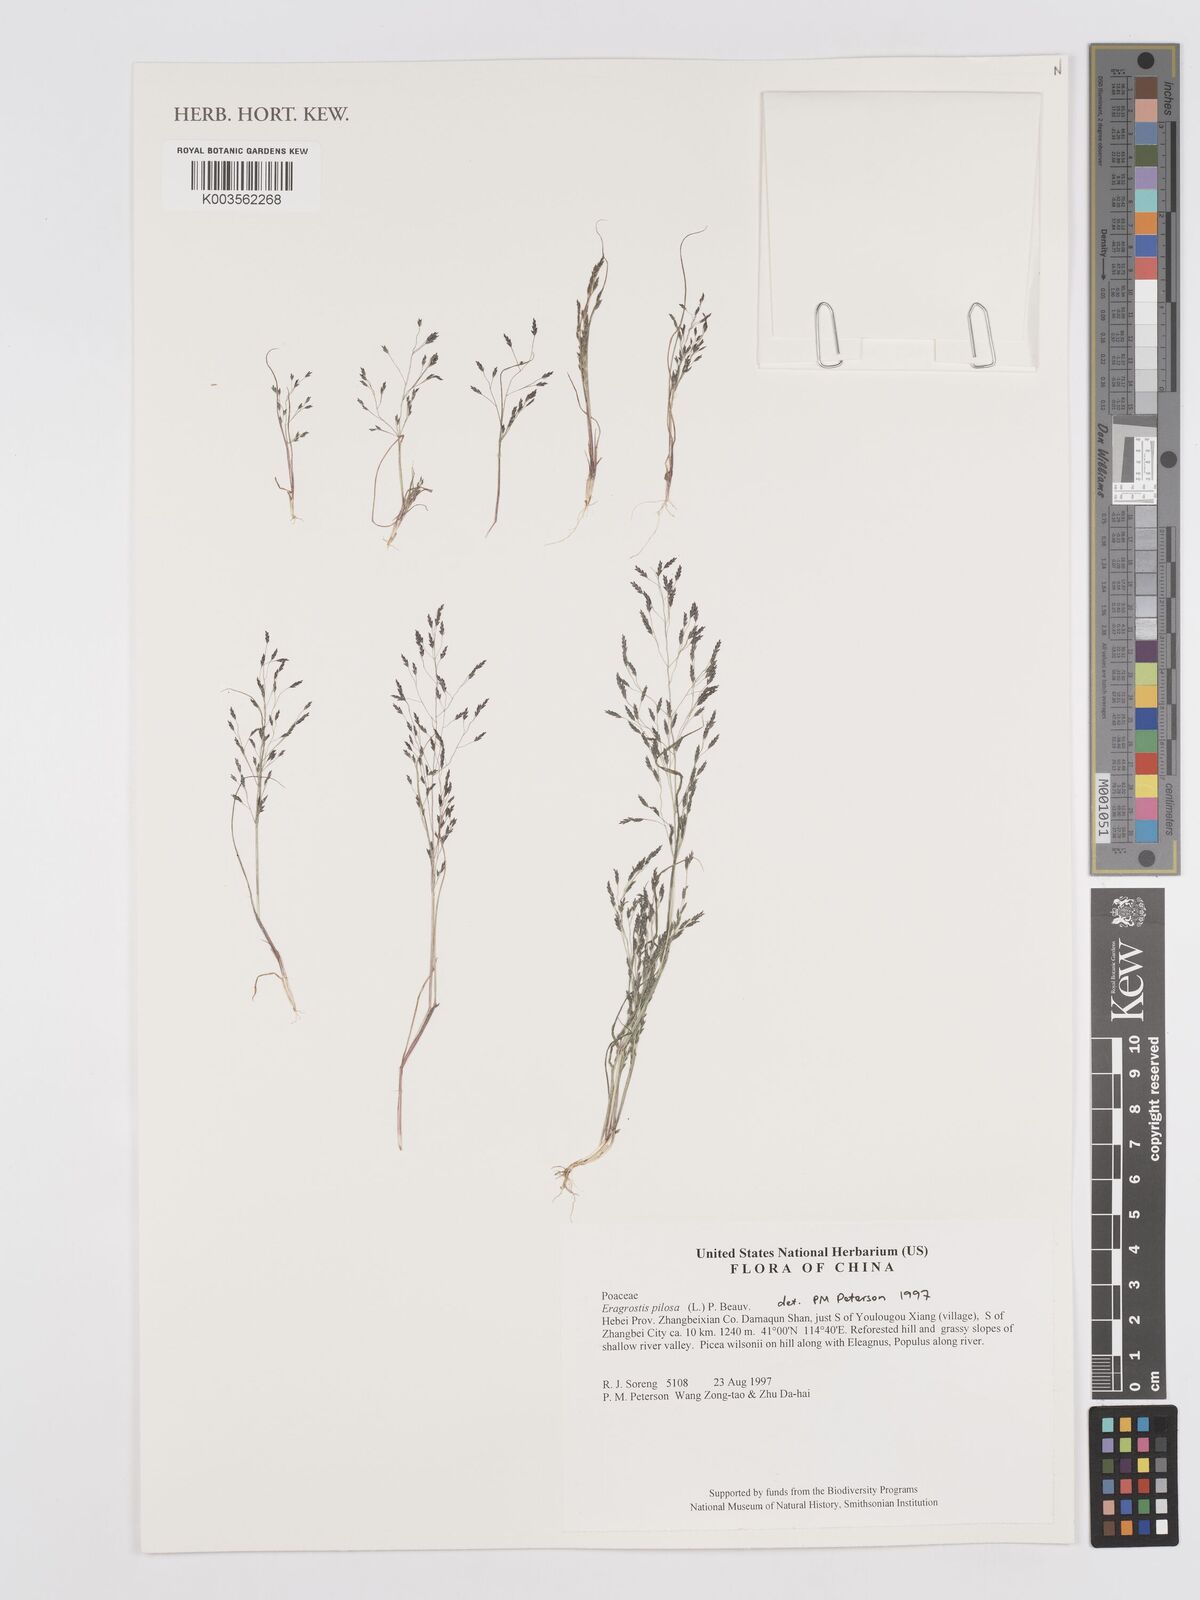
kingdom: Plantae
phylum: Tracheophyta
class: Liliopsida
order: Poales
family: Poaceae
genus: Eragrostis
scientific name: Eragrostis pilosa
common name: Indian lovegrass
